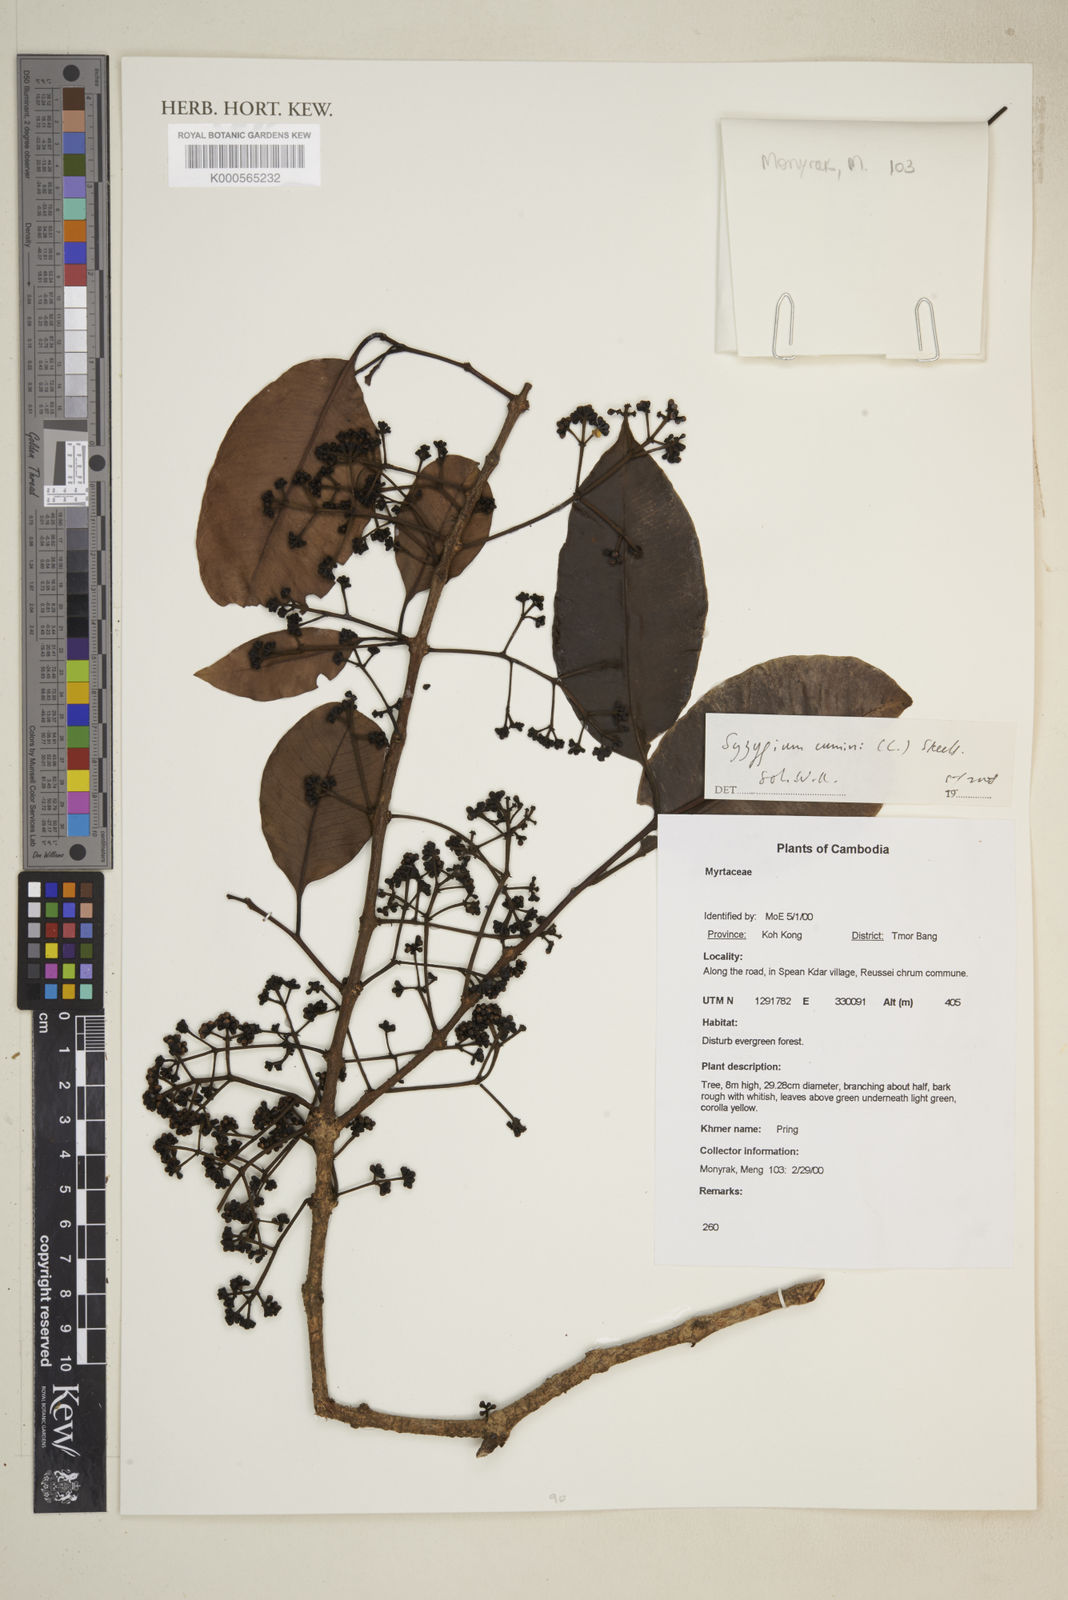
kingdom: Plantae
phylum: Tracheophyta
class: Magnoliopsida
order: Myrtales
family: Myrtaceae
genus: Syzygium
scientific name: Syzygium cumini
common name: Java plum
